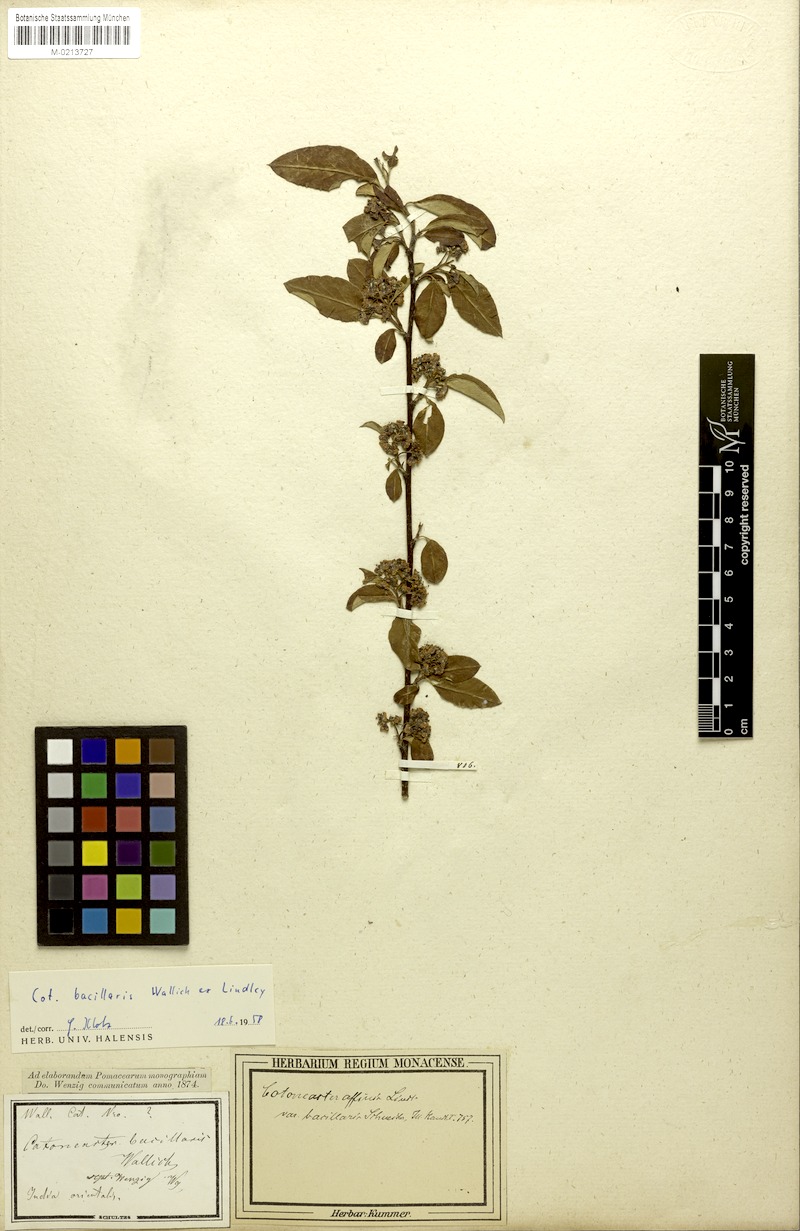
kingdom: Plantae
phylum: Tracheophyta
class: Magnoliopsida
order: Rosales
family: Rosaceae
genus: Cotoneaster
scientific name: Cotoneaster affinis
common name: Purpleberry cotoneaster
